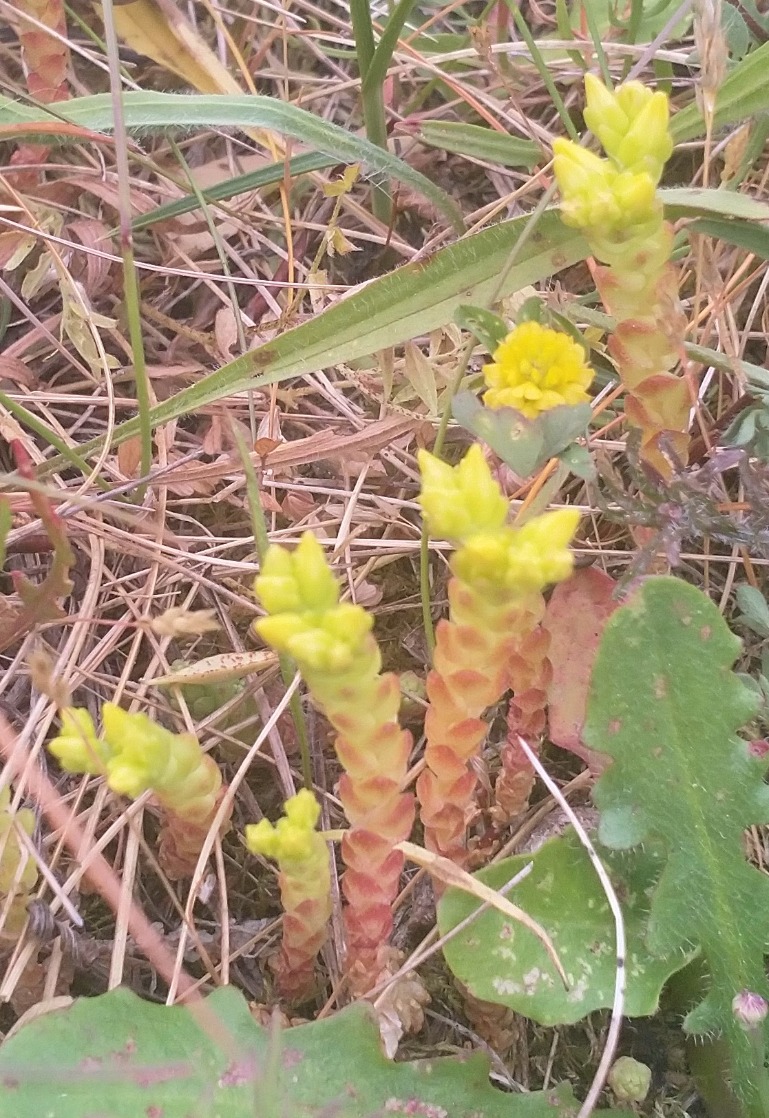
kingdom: Plantae
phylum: Tracheophyta
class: Magnoliopsida
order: Saxifragales
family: Crassulaceae
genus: Sedum
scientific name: Sedum acre
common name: Bidende stenurt
